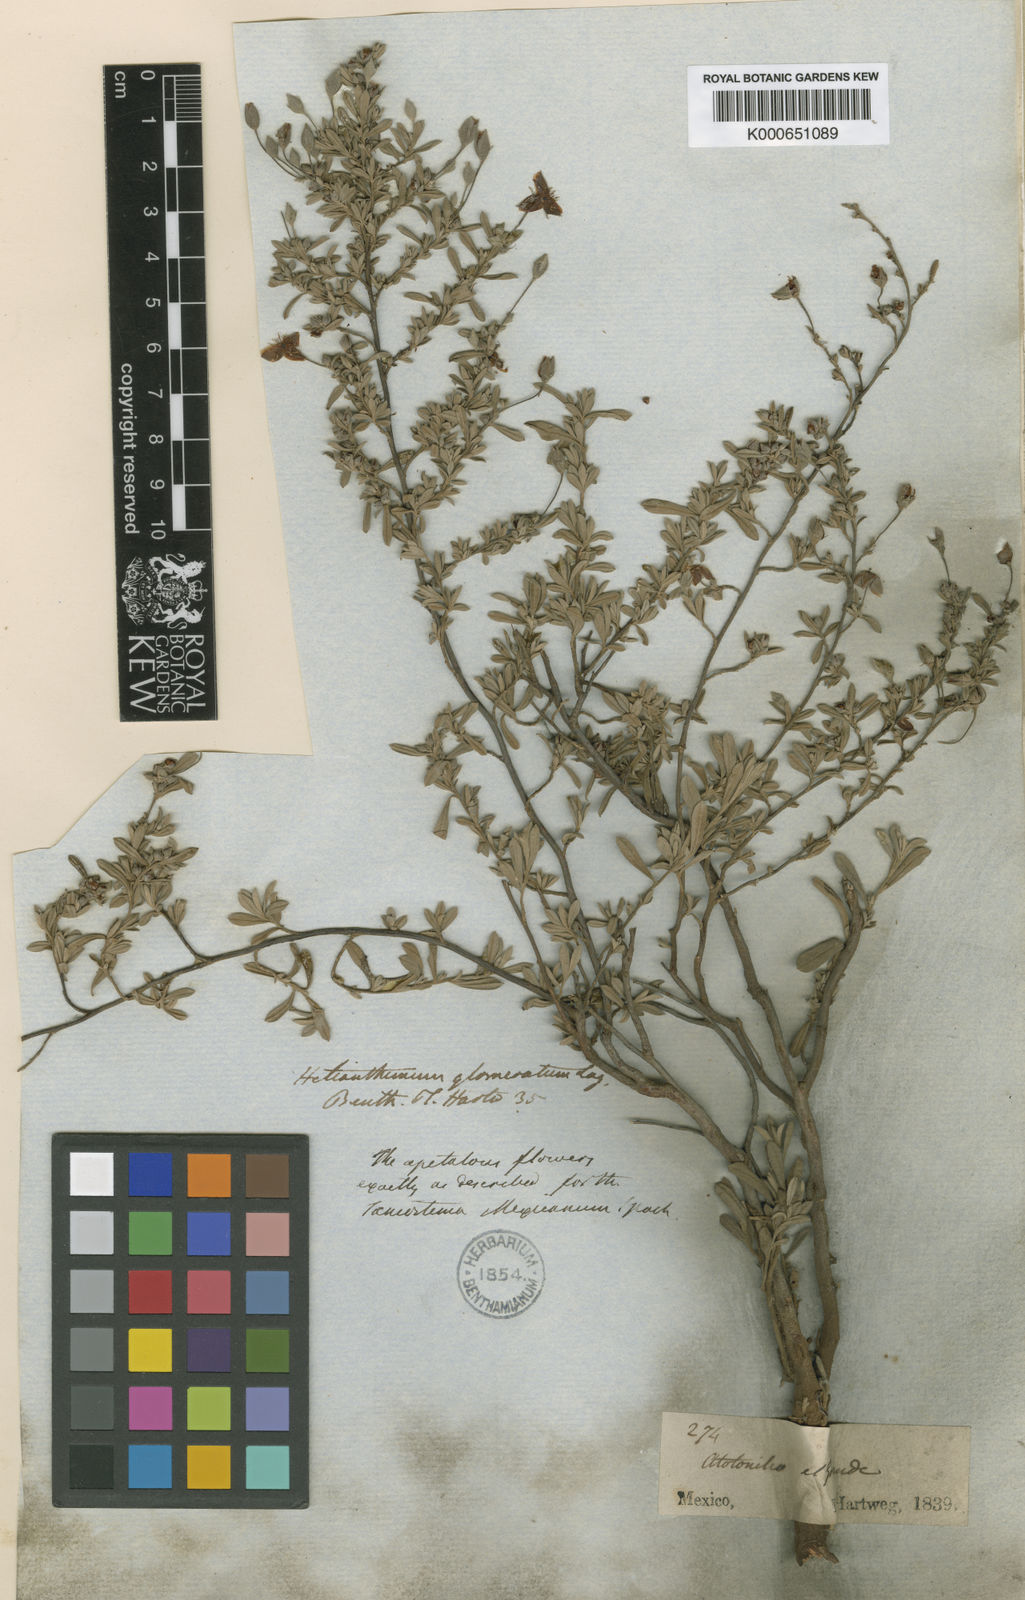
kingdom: Plantae
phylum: Tracheophyta
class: Magnoliopsida
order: Malvales
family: Cistaceae
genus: Crocanthemum
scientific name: Crocanthemum glomeratum
